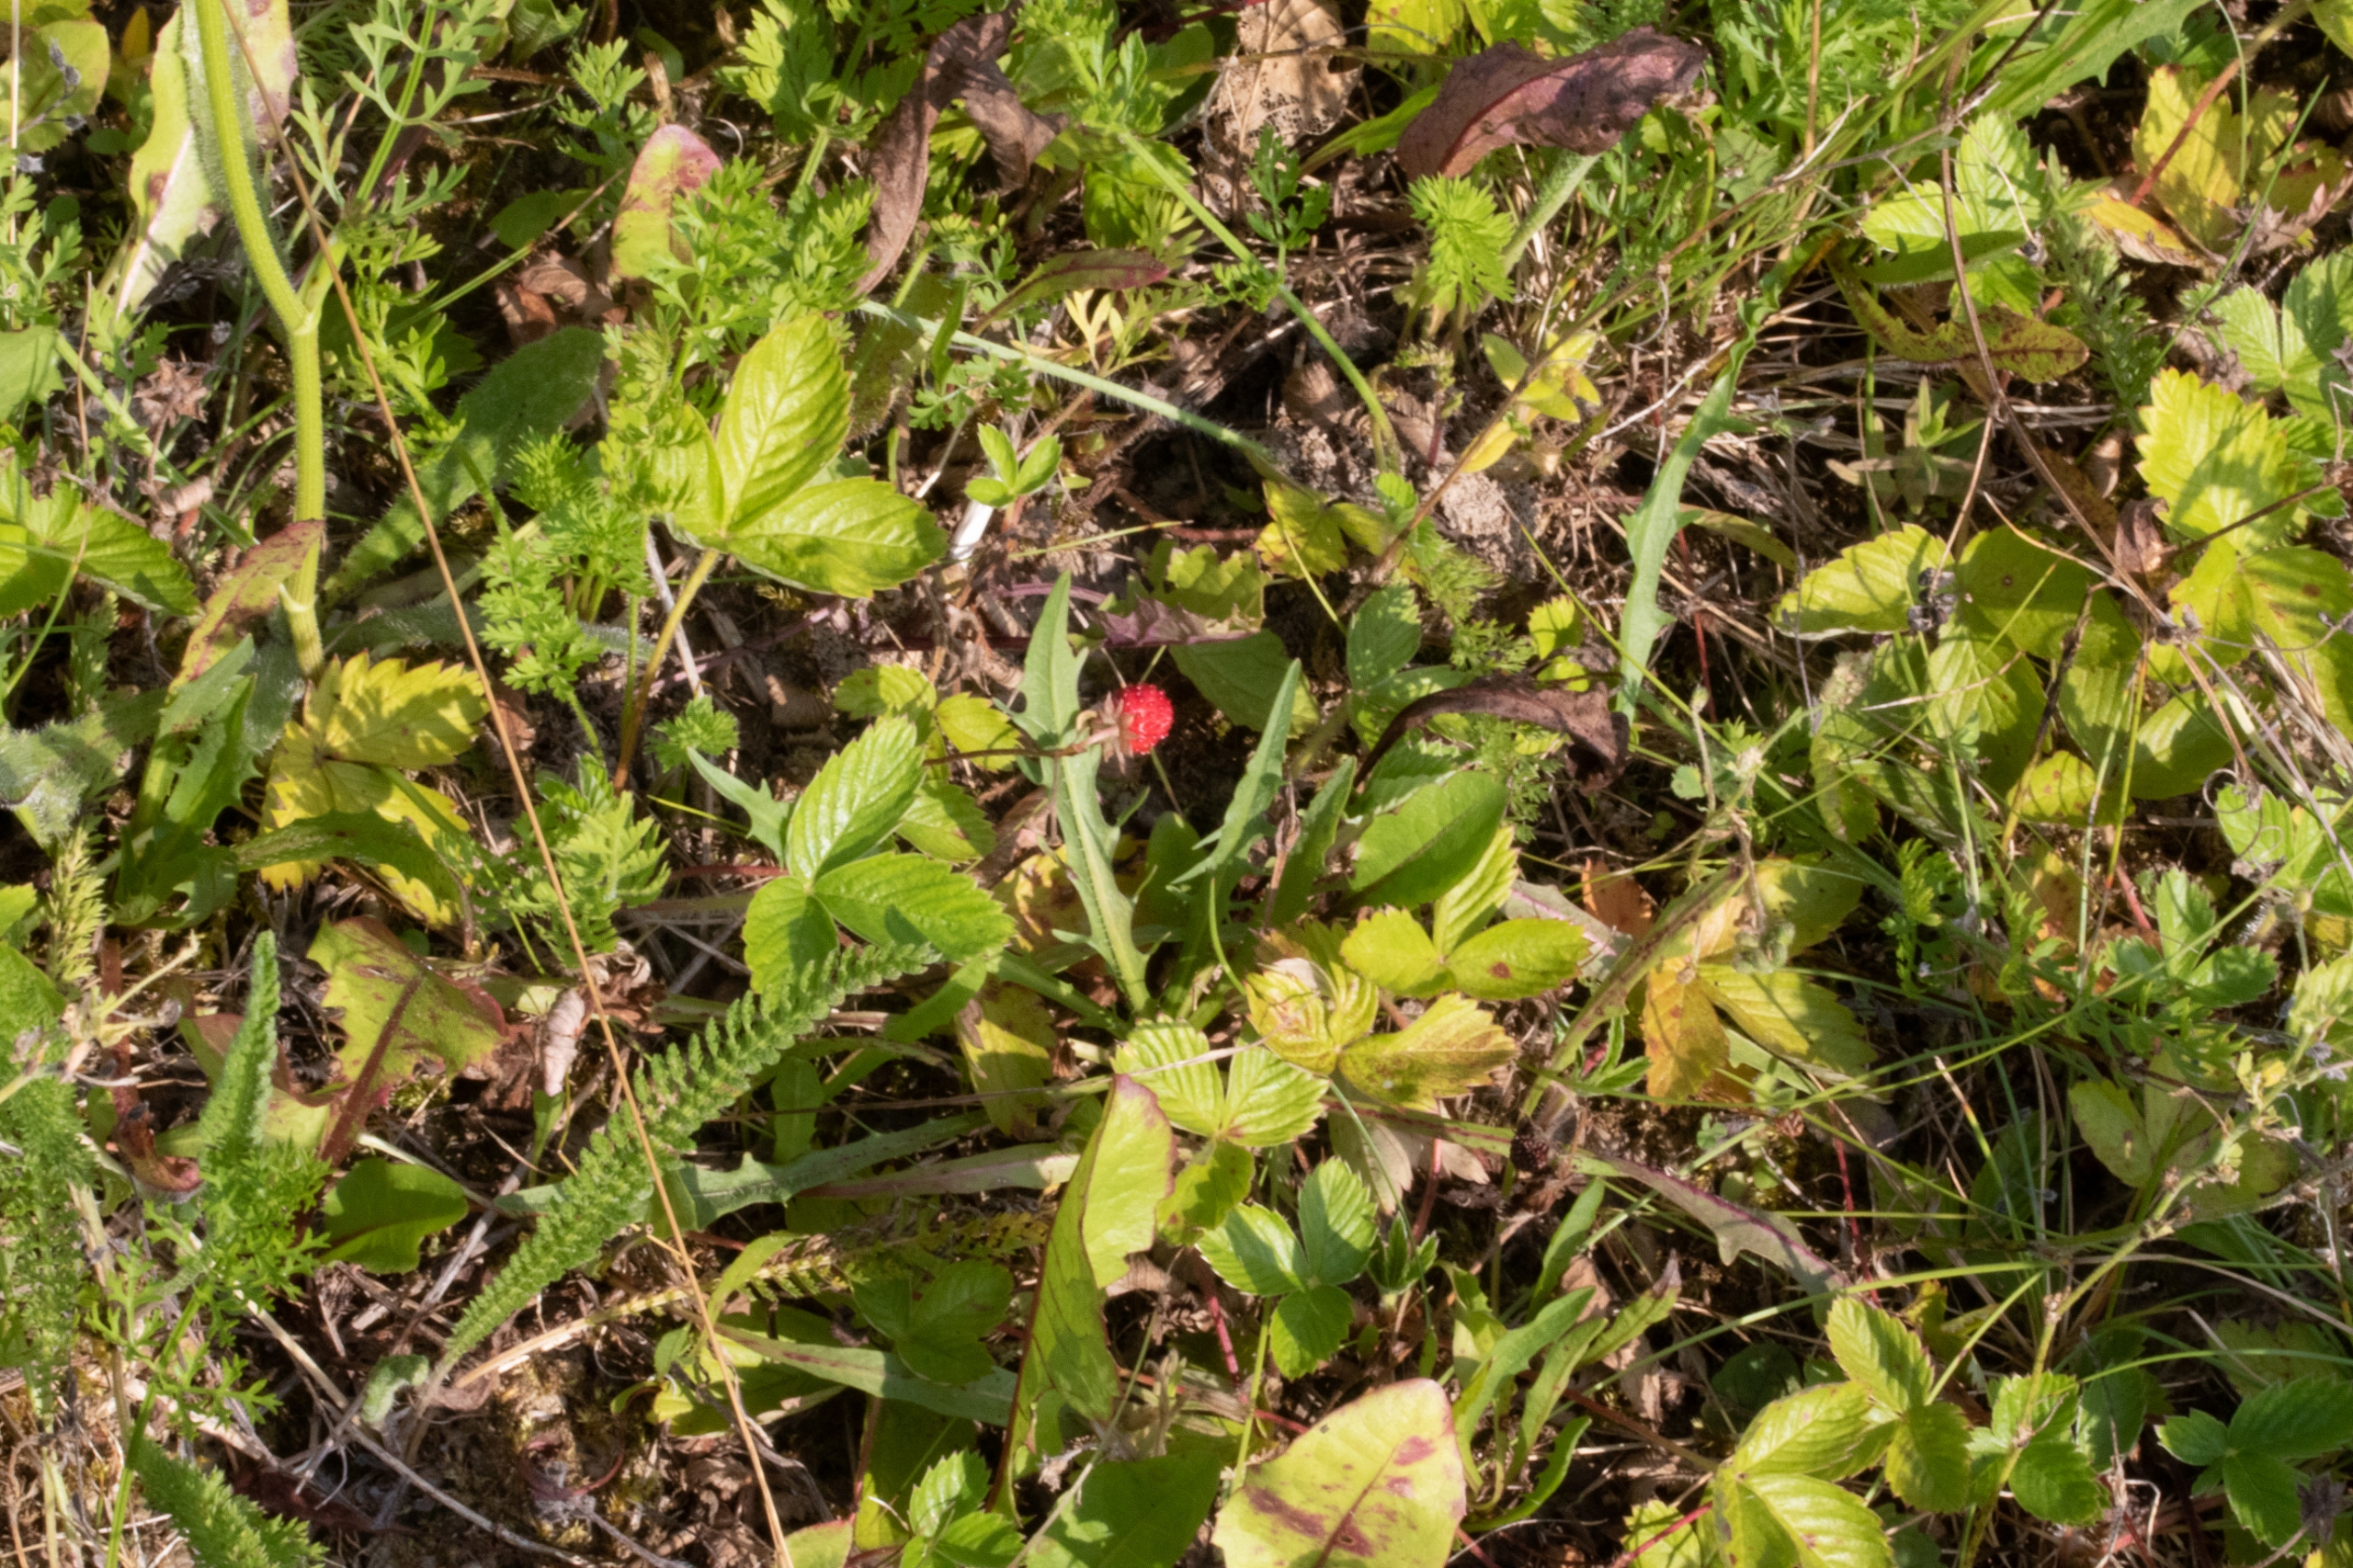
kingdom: Plantae
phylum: Tracheophyta
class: Magnoliopsida
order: Rosales
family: Rosaceae
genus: Fragaria
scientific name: Fragaria vesca
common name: Skov-jordbær
